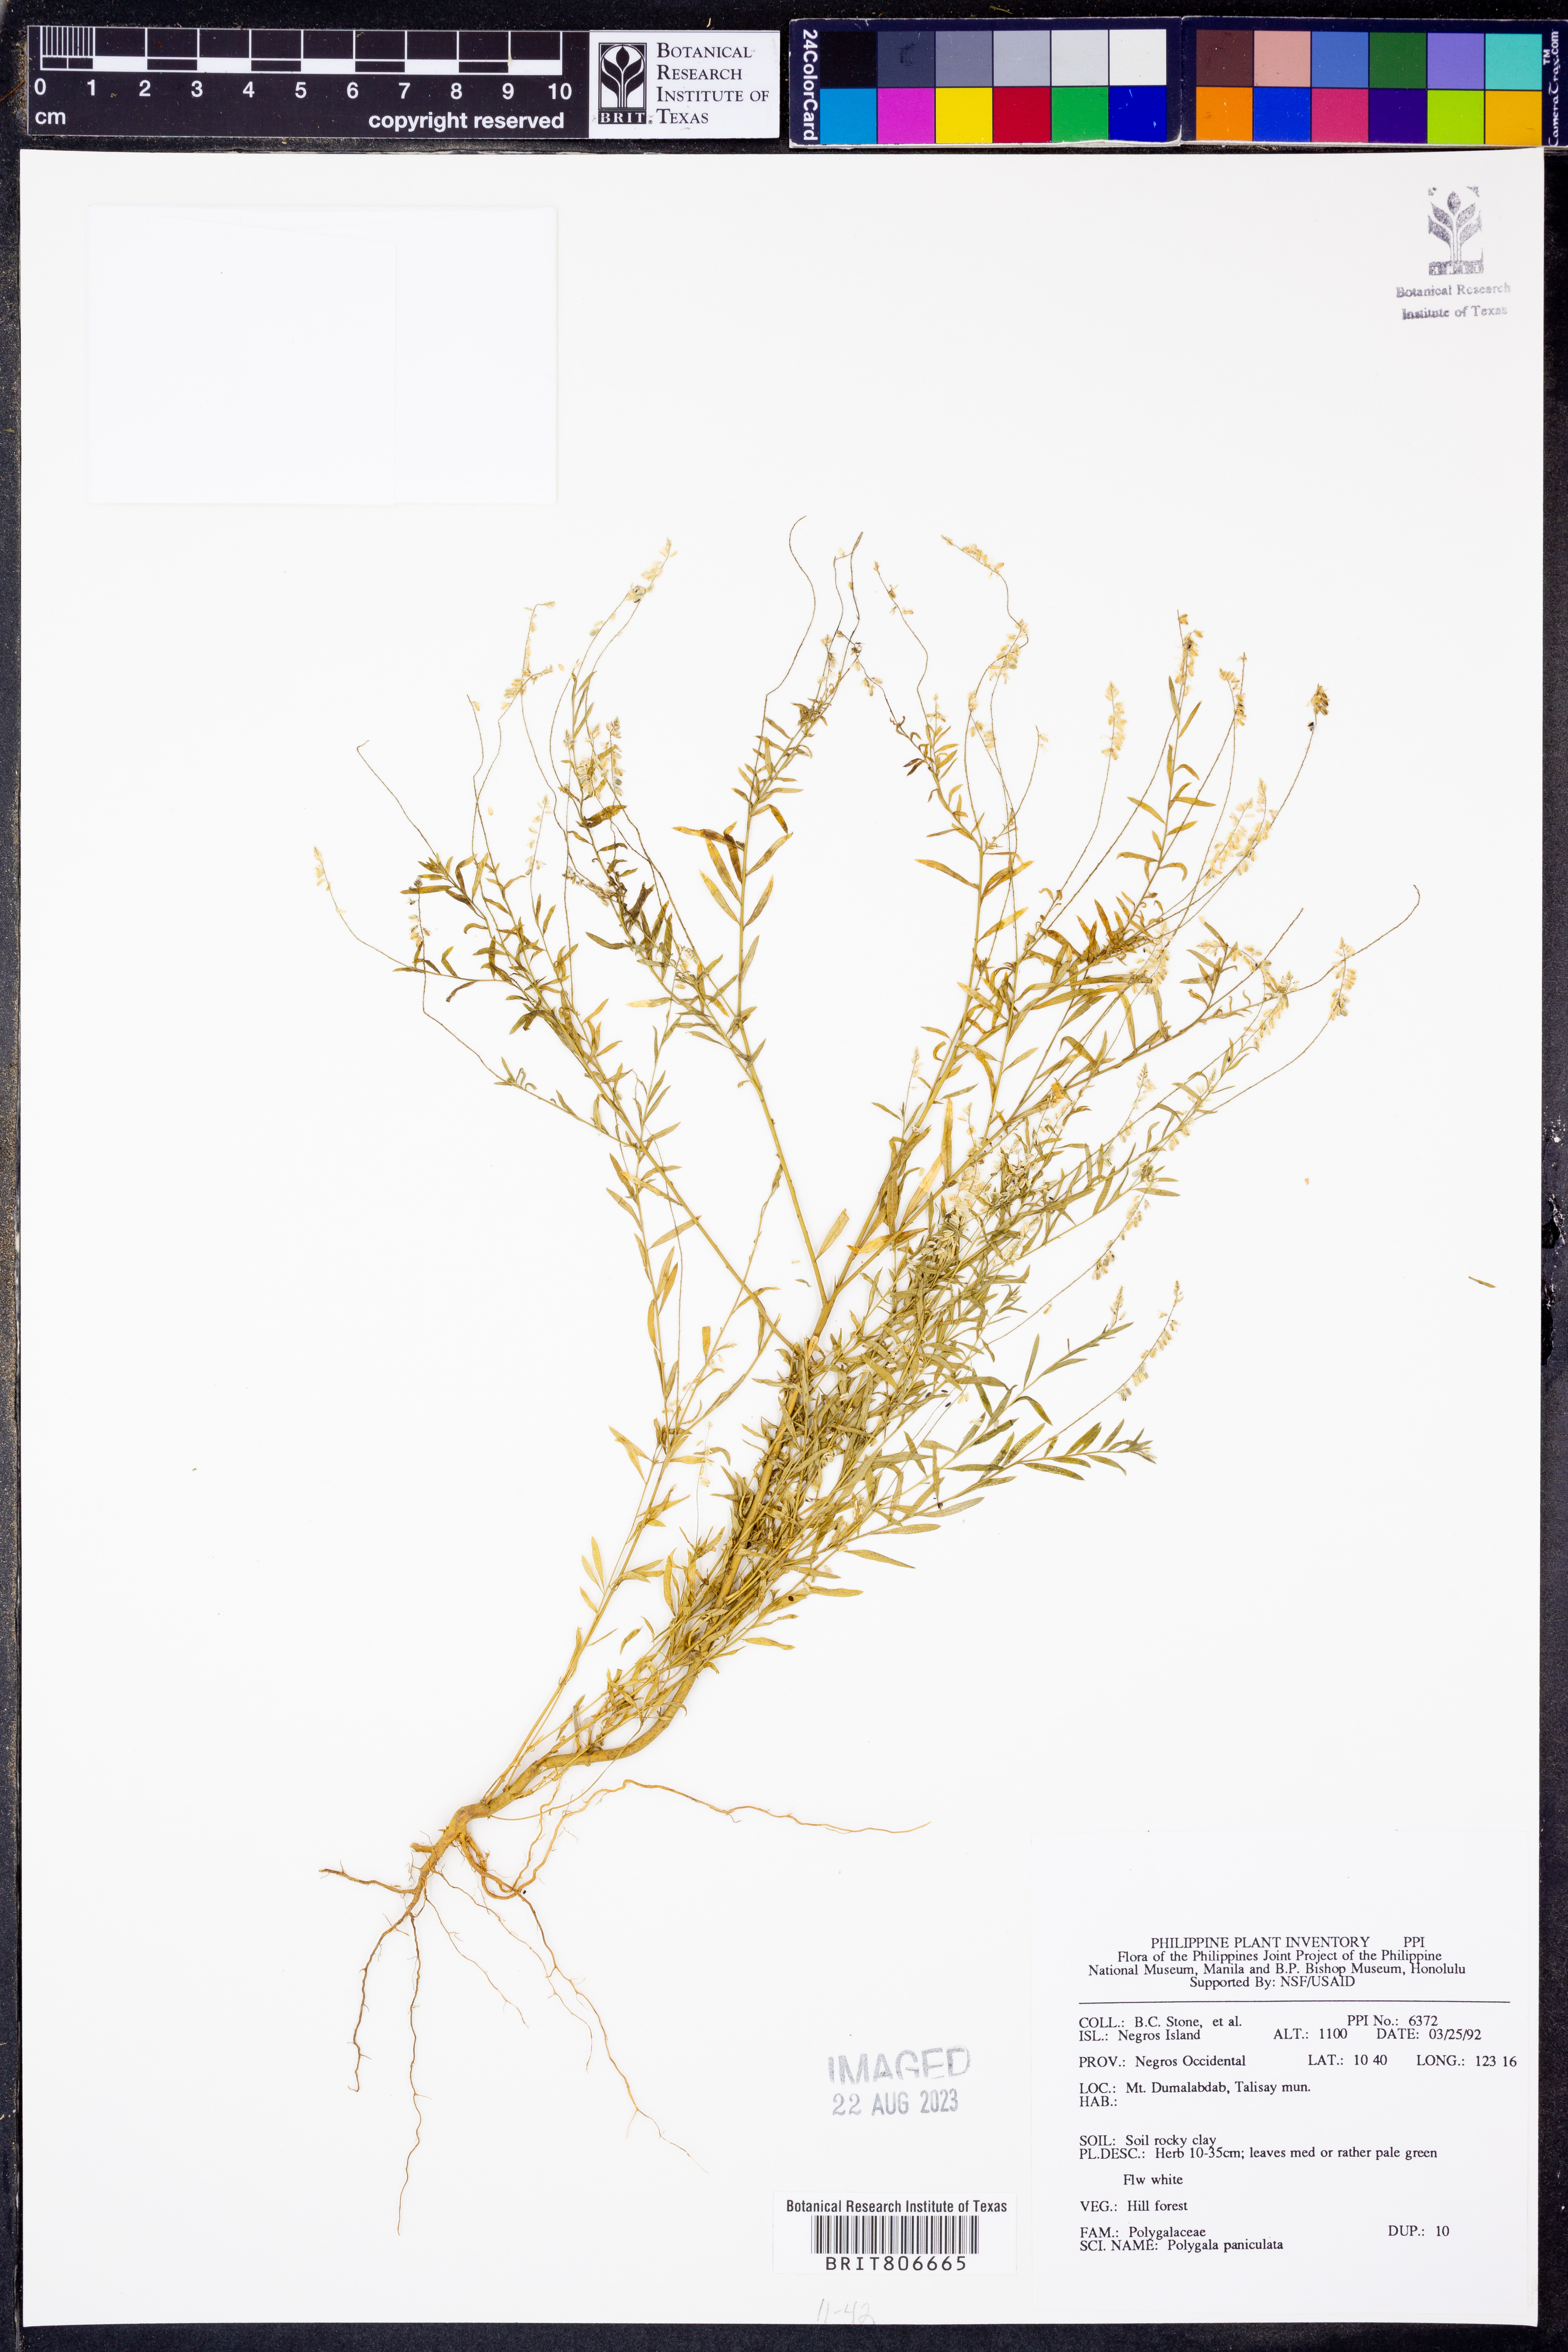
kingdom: Plantae
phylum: Tracheophyta
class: Magnoliopsida
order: Fabales
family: Polygalaceae
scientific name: Polygalaceae
